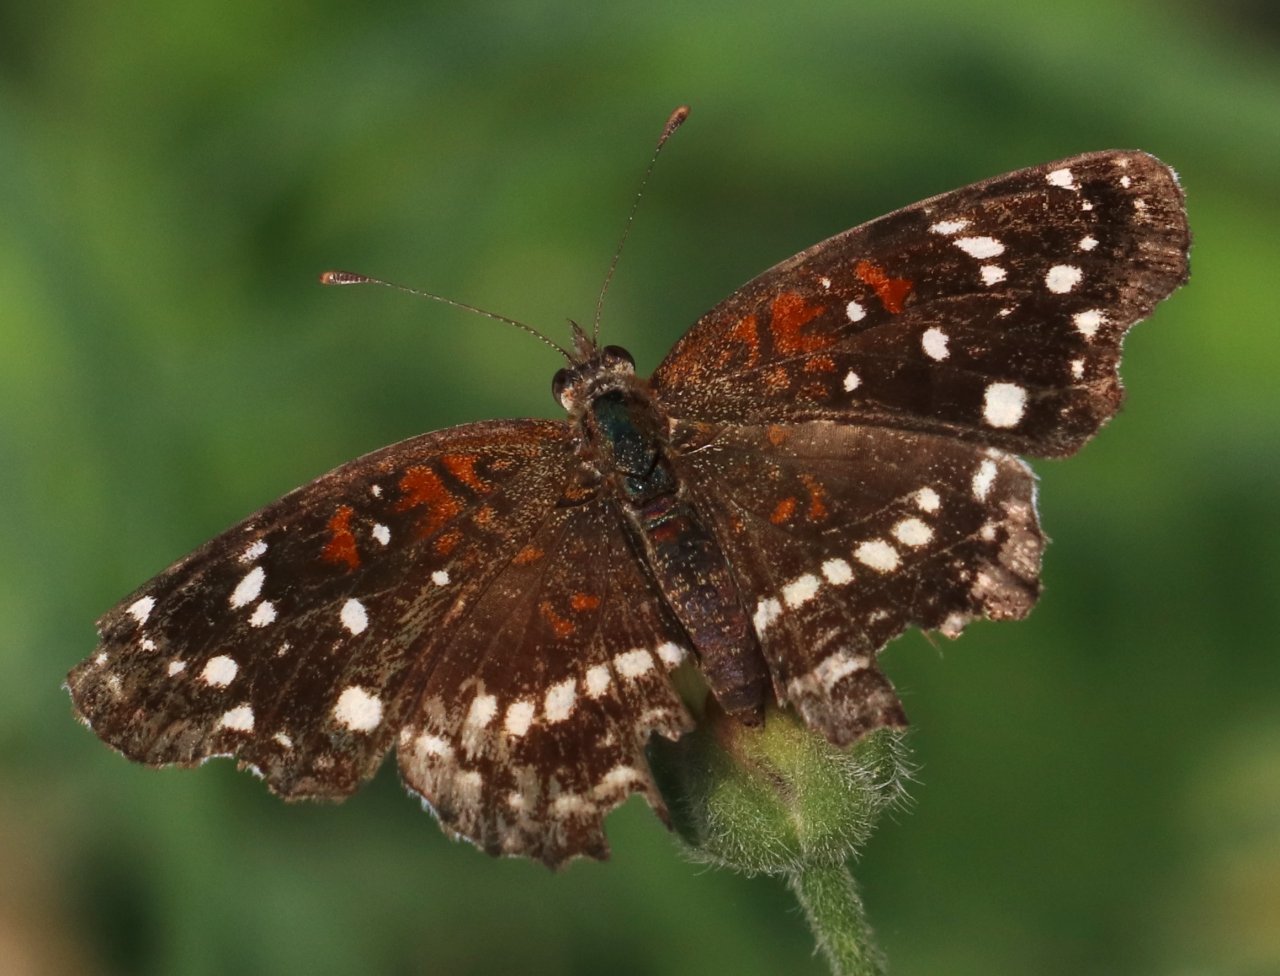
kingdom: Animalia
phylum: Arthropoda
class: Insecta
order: Lepidoptera
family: Nymphalidae
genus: Anthanassa
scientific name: Anthanassa texana
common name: Texan Crescent
